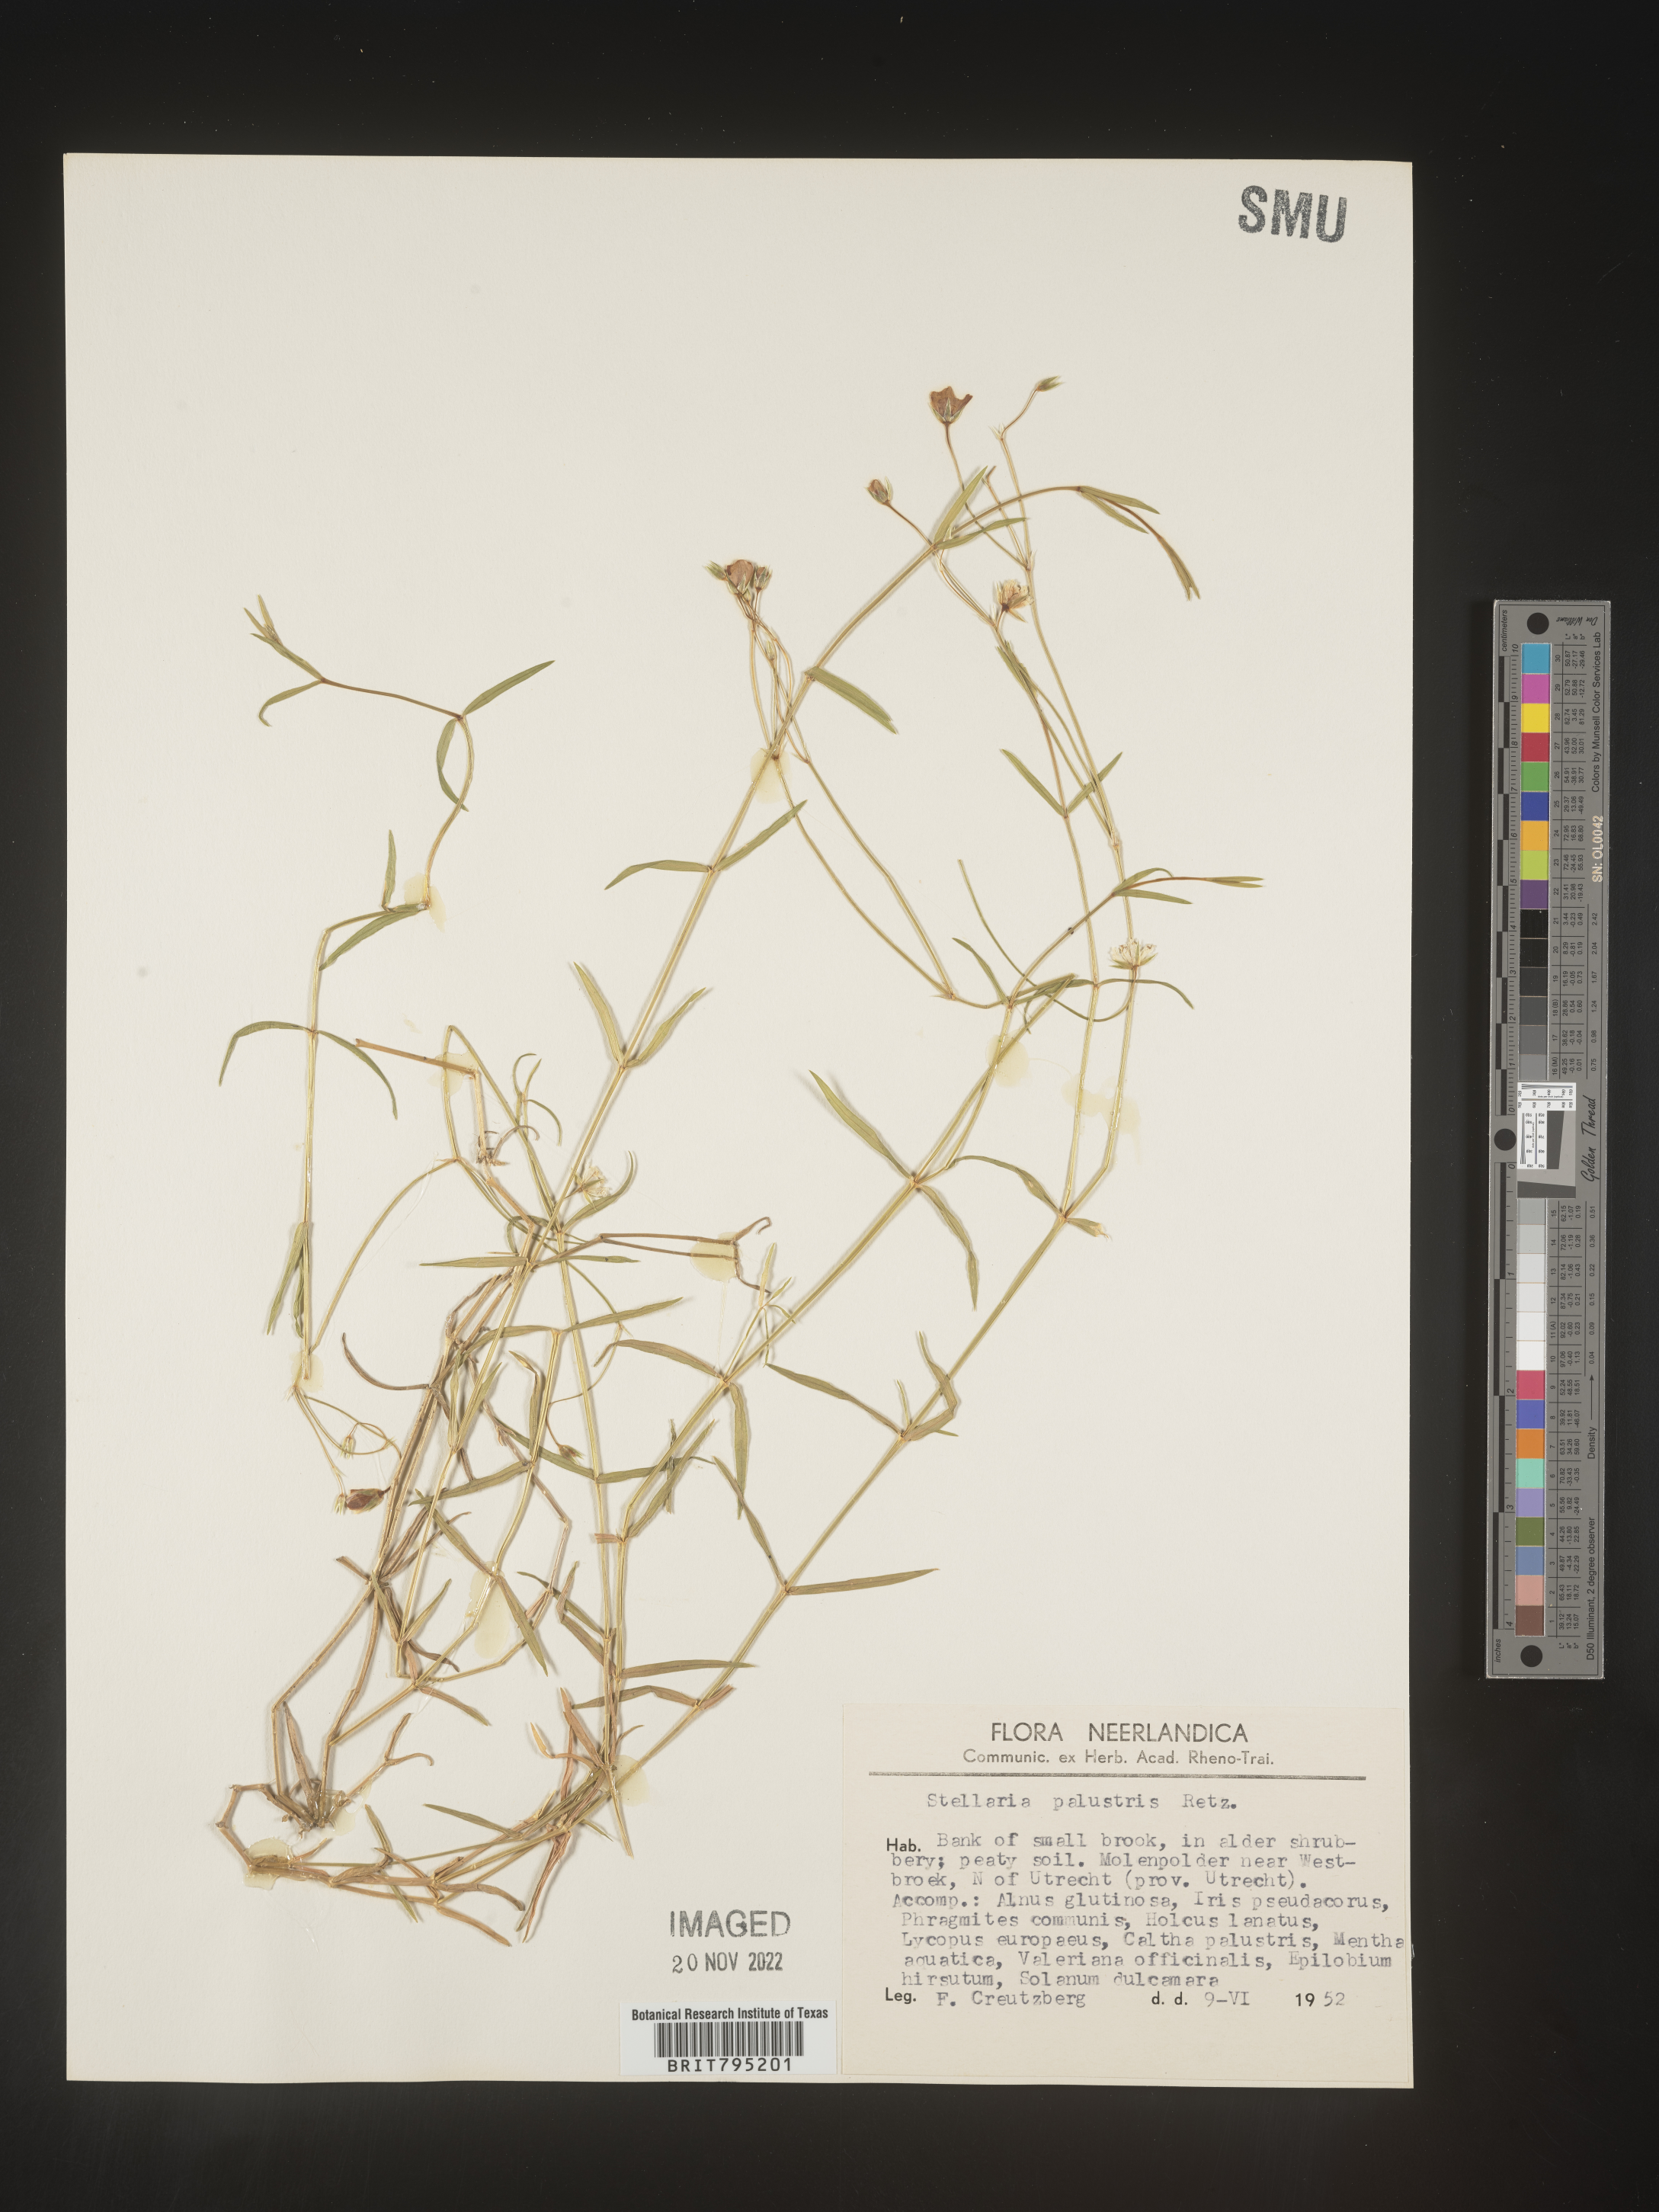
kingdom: Plantae
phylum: Tracheophyta
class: Magnoliopsida
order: Caryophyllales
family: Caryophyllaceae
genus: Stellaria
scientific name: Stellaria
